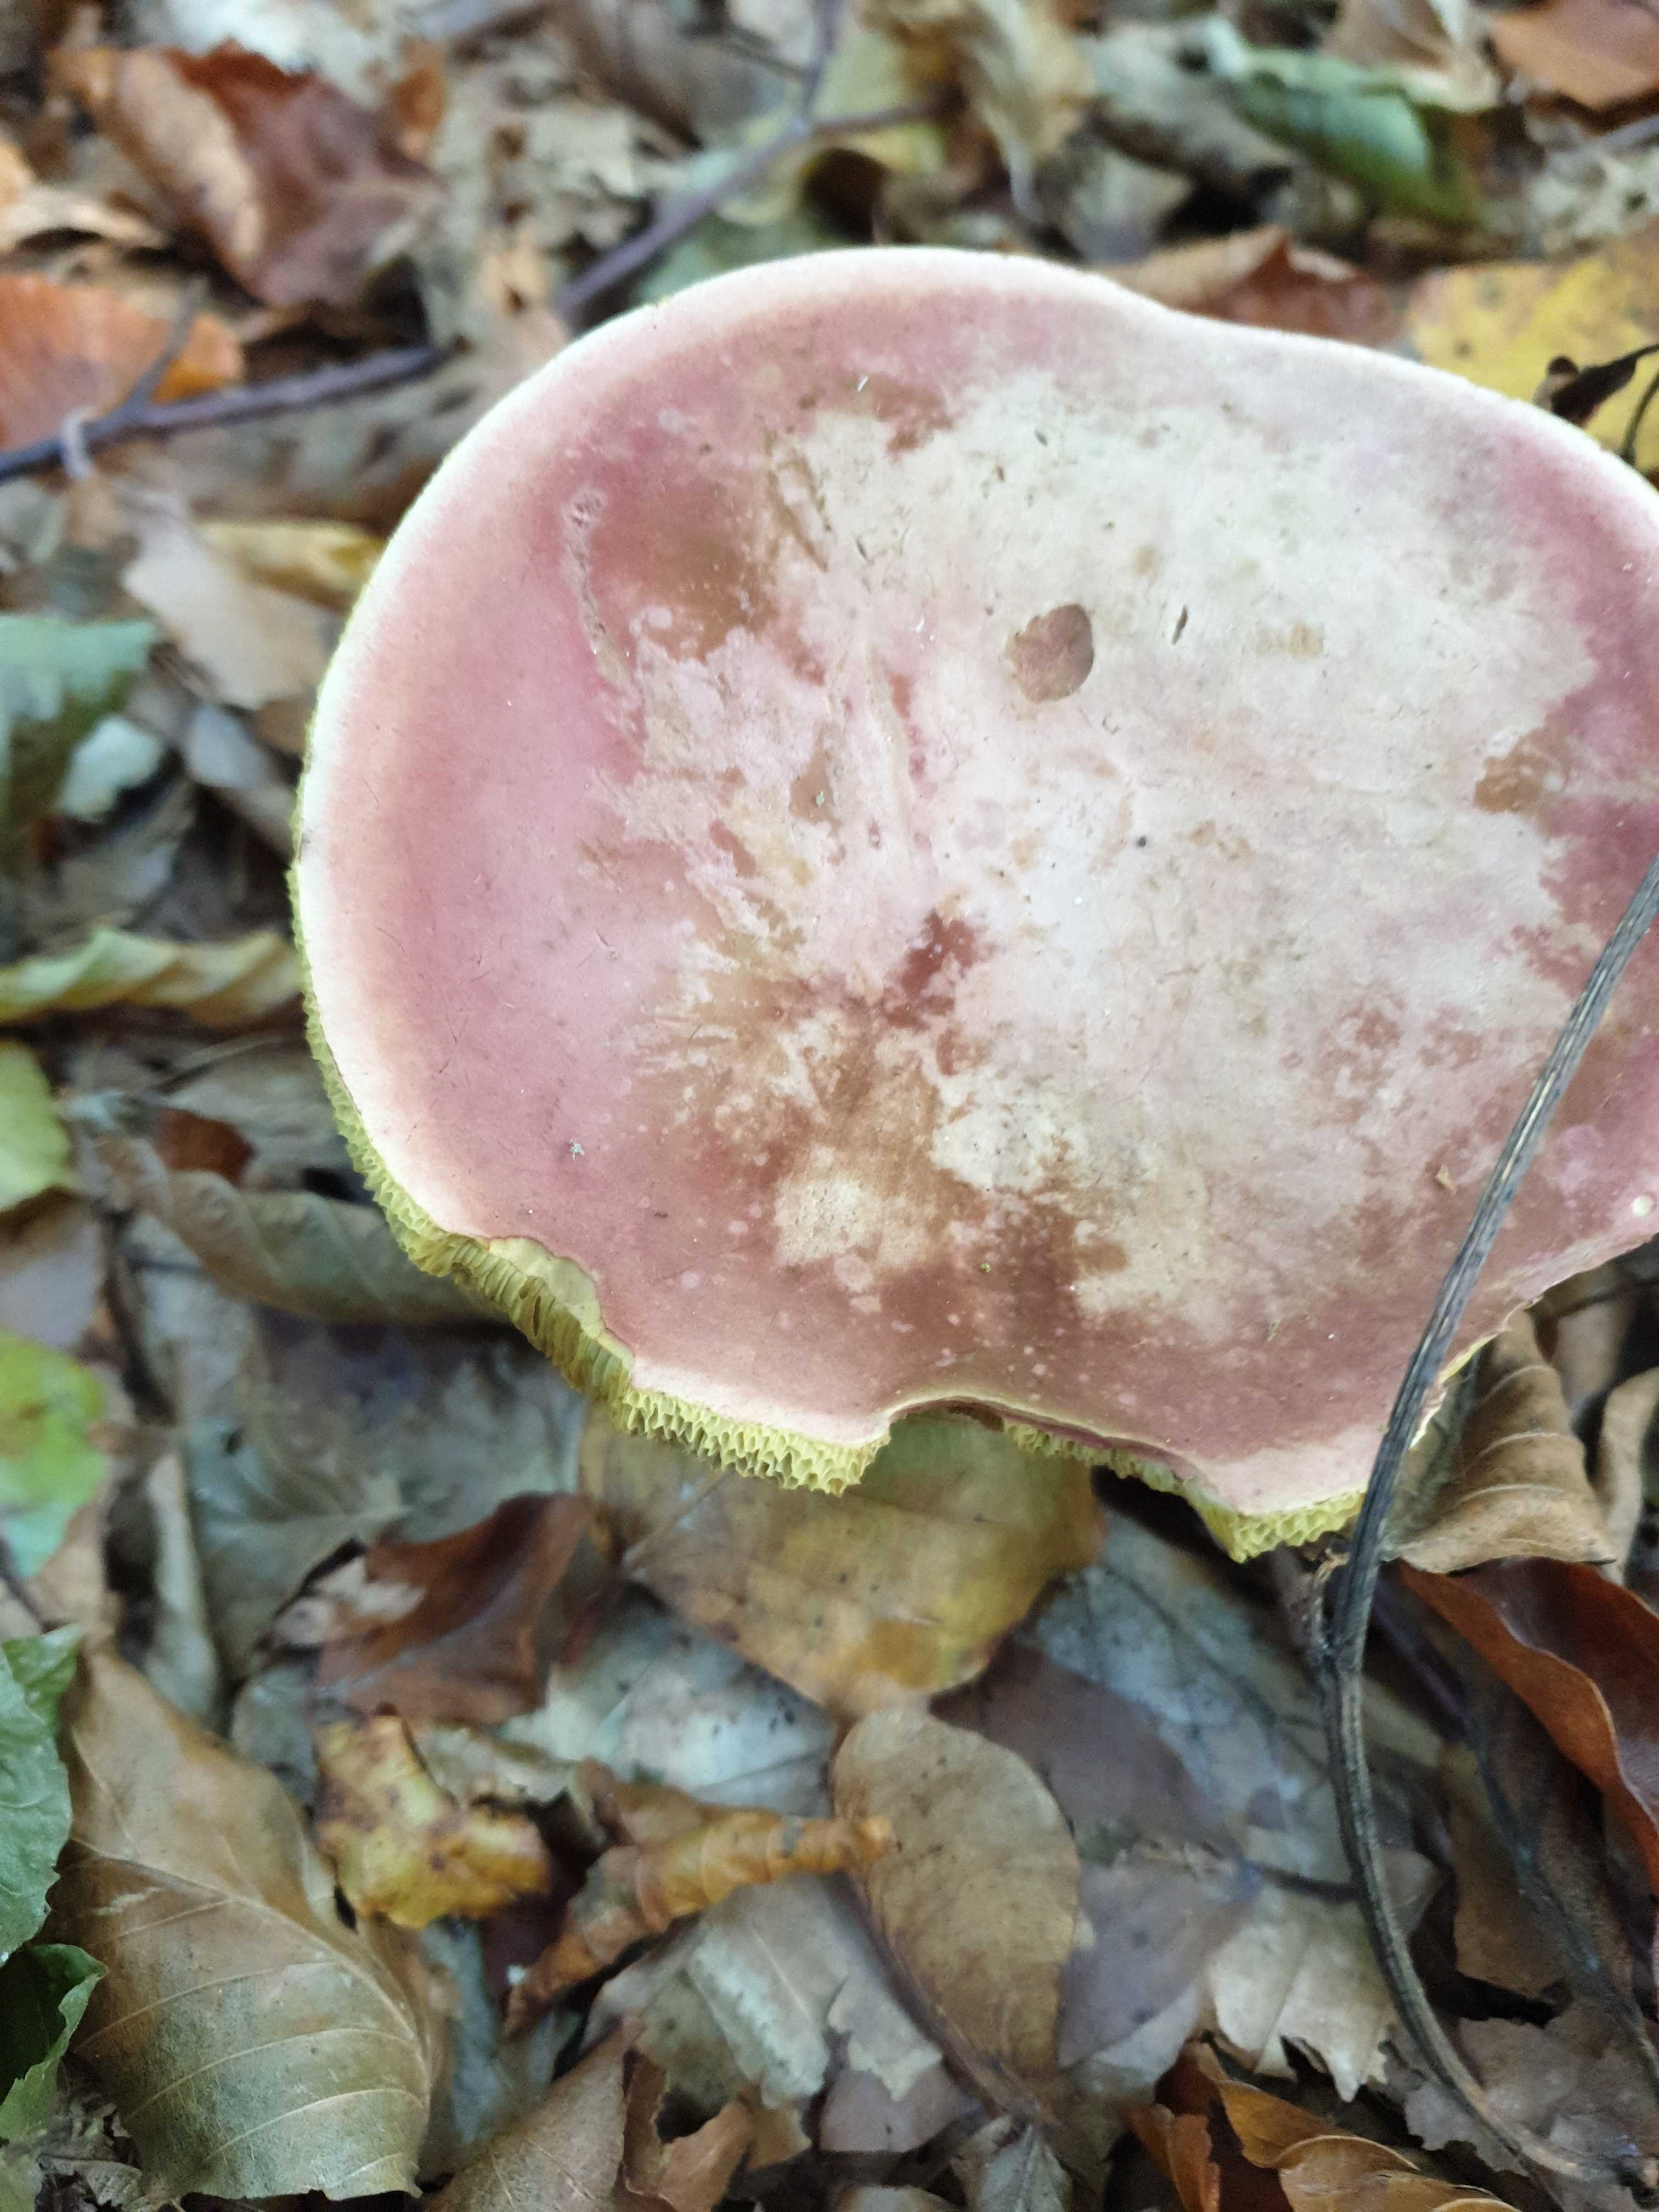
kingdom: Fungi
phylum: Basidiomycota
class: Agaricomycetes
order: Boletales
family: Boletaceae
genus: Xerocomellus
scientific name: Xerocomellus
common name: dværgrørhat
